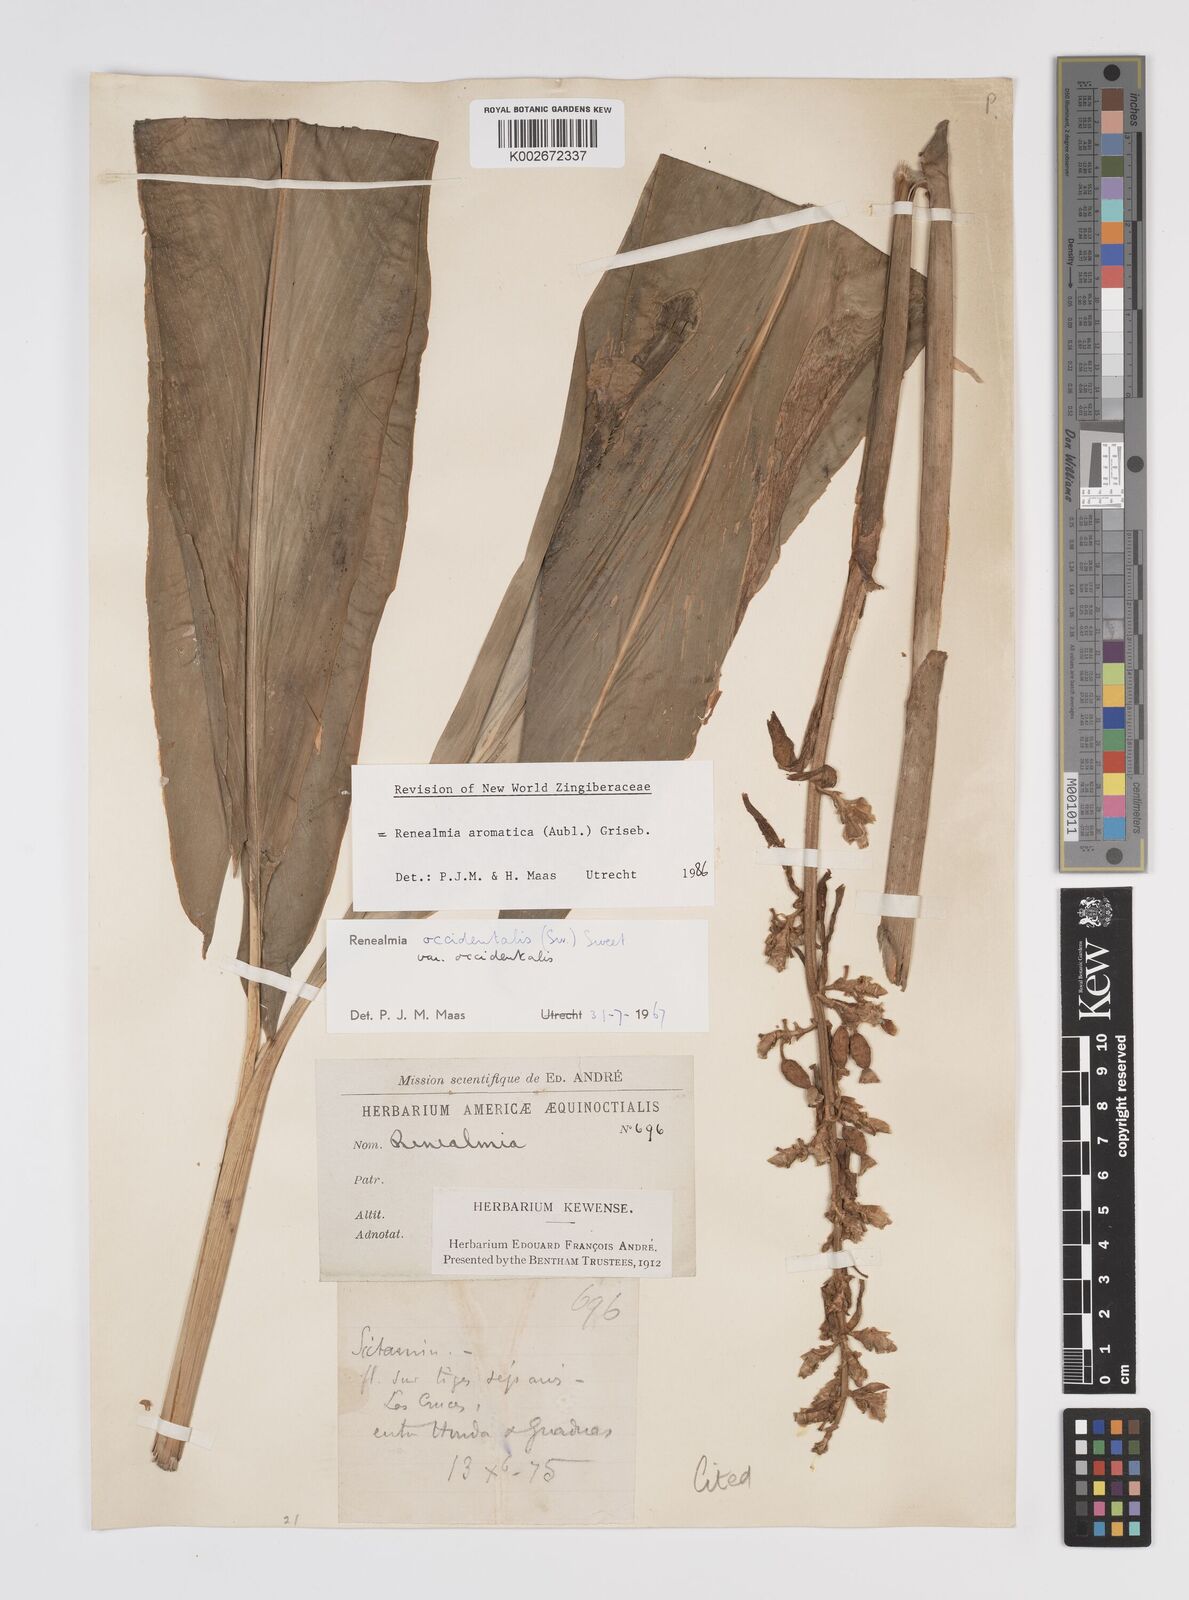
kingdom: Plantae
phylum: Tracheophyta
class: Liliopsida
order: Zingiberales
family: Zingiberaceae
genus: Renealmia
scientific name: Renealmia aromatica
